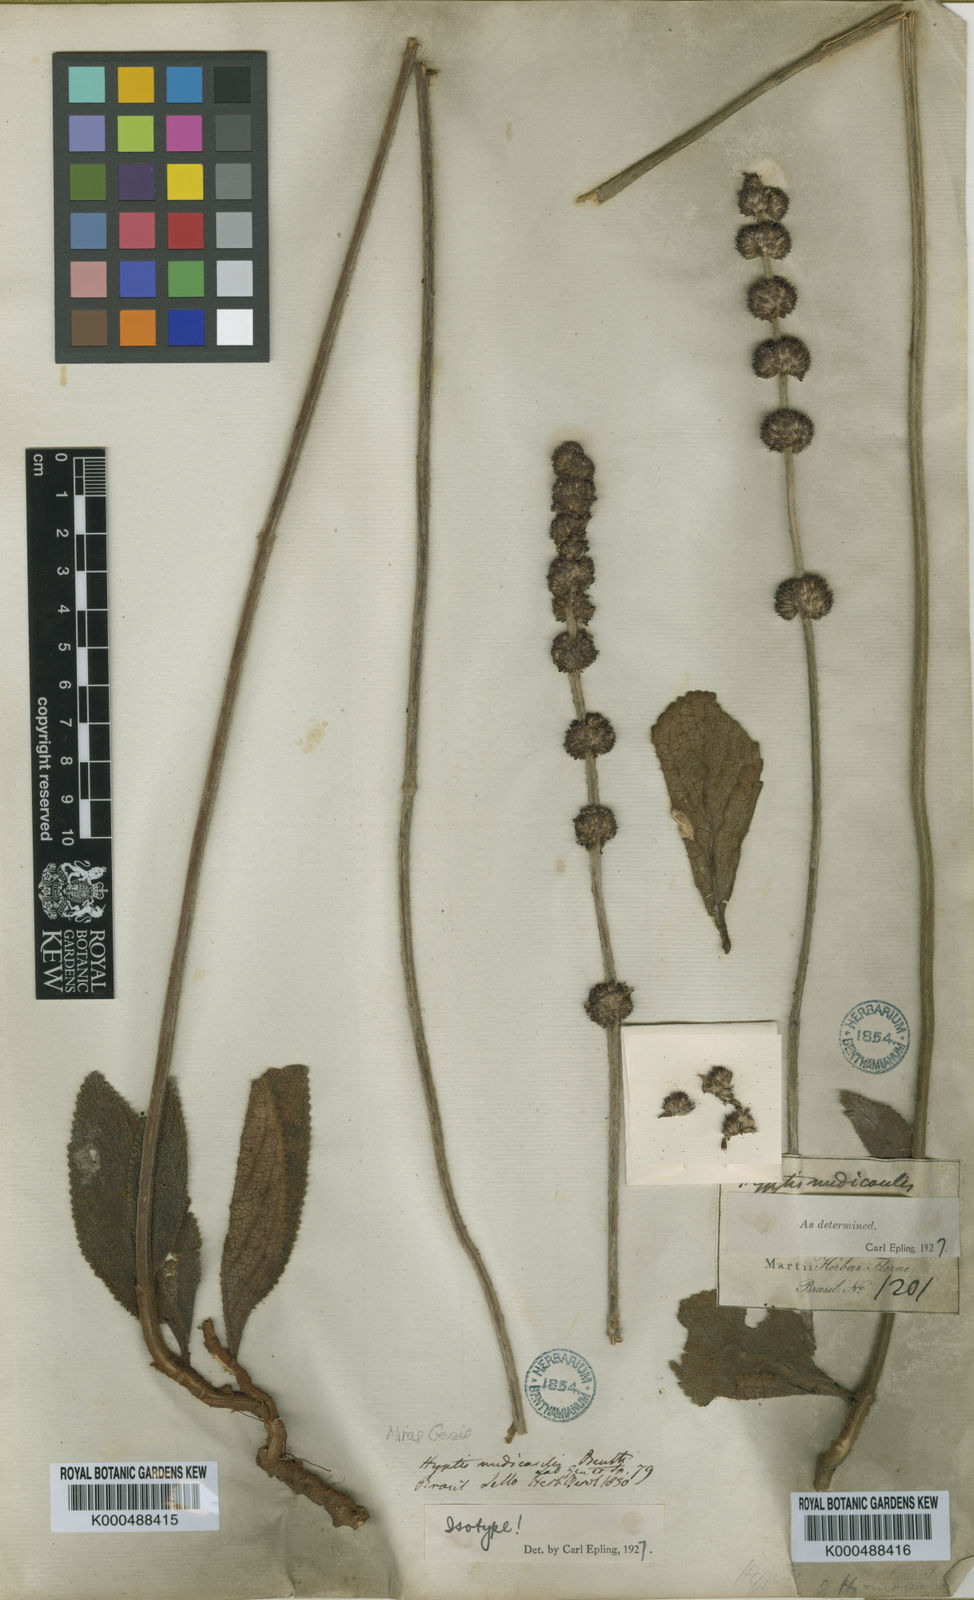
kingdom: Plantae
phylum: Tracheophyta
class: Magnoliopsida
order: Lamiales
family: Lamiaceae
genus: Hyptis
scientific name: Hyptis nudicaulis
